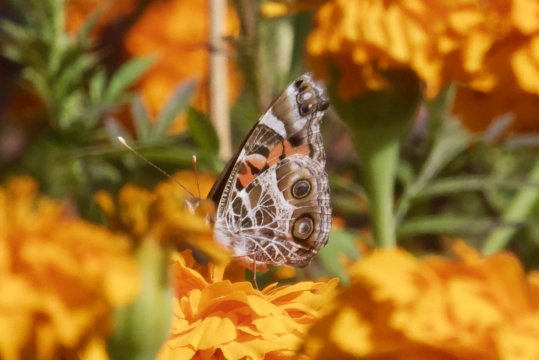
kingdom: Animalia
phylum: Arthropoda
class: Insecta
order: Lepidoptera
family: Nymphalidae
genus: Vanessa
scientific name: Vanessa virginiensis
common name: American Lady
